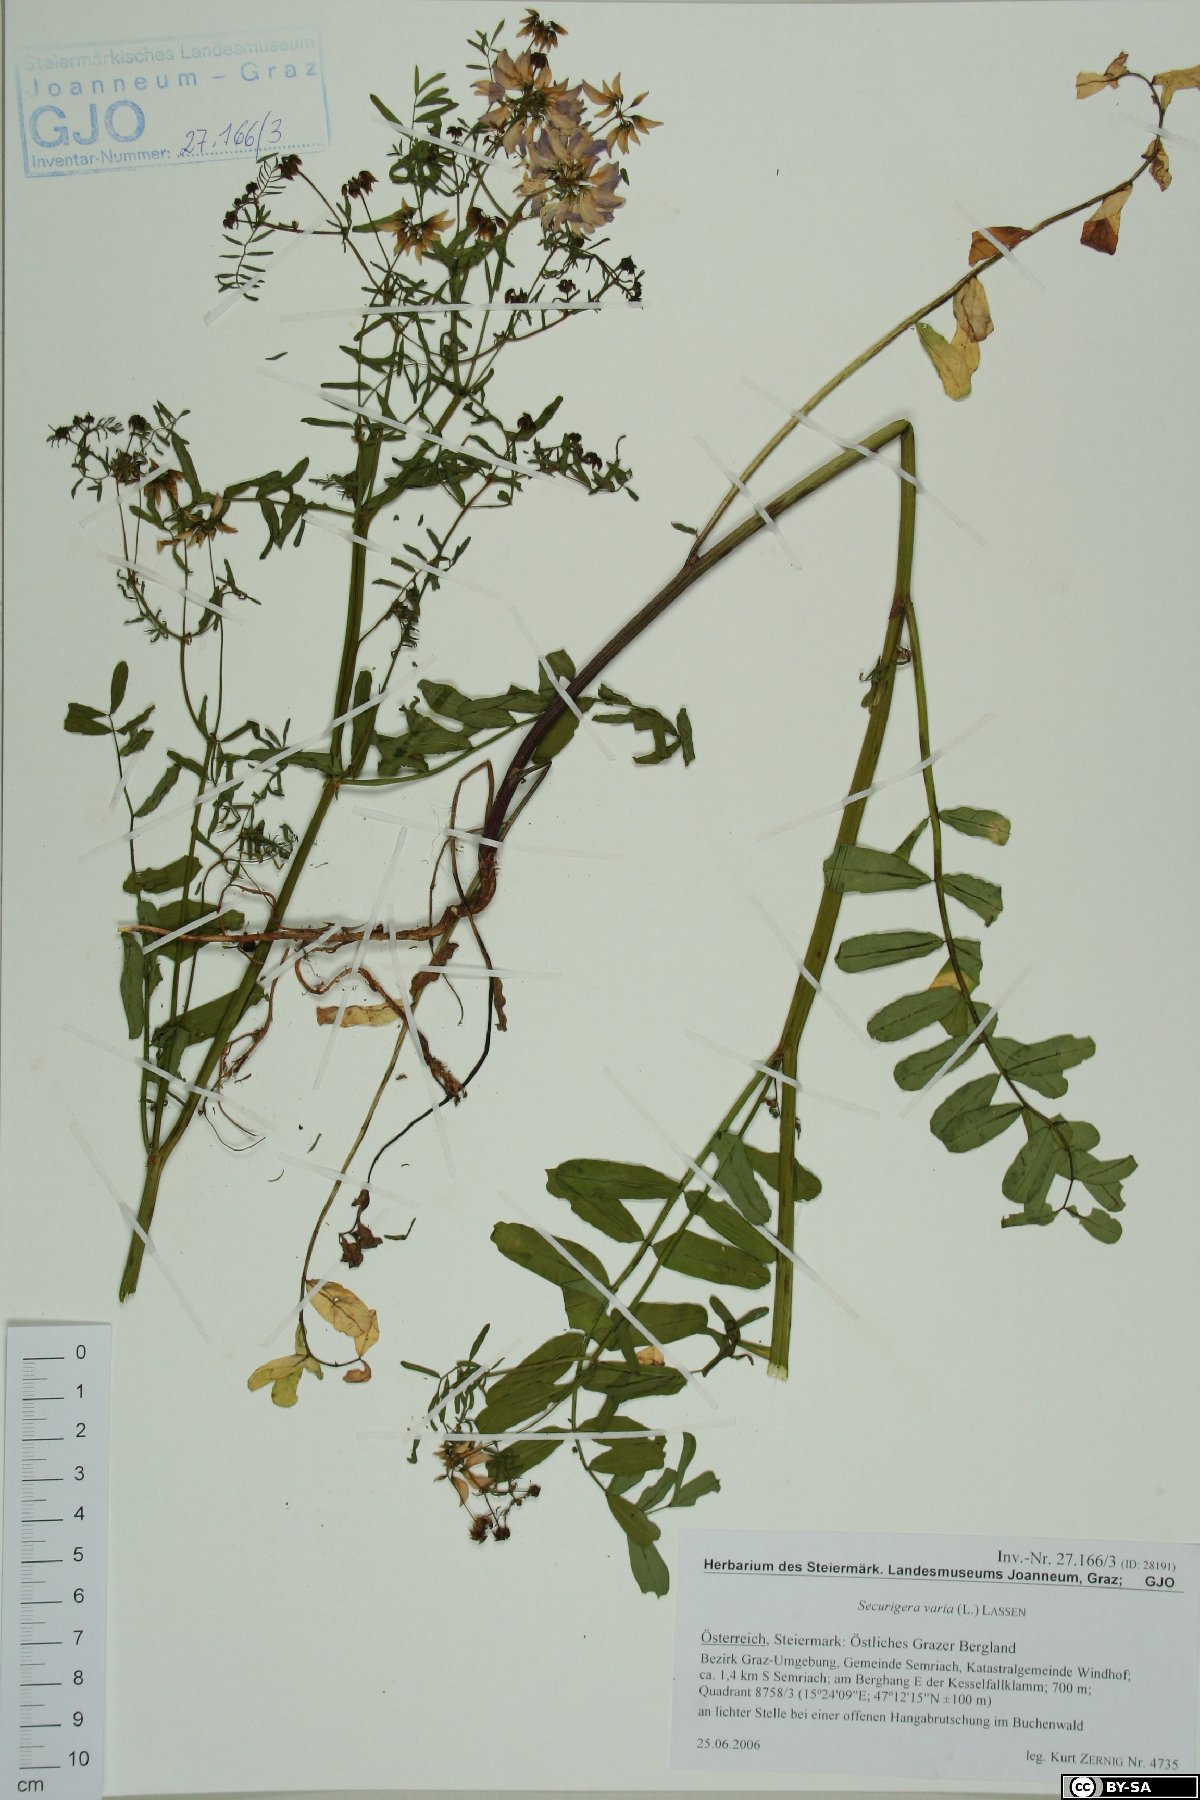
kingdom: Plantae
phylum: Tracheophyta
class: Magnoliopsida
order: Fabales
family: Fabaceae
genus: Coronilla
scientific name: Coronilla varia
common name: Crownvetch
